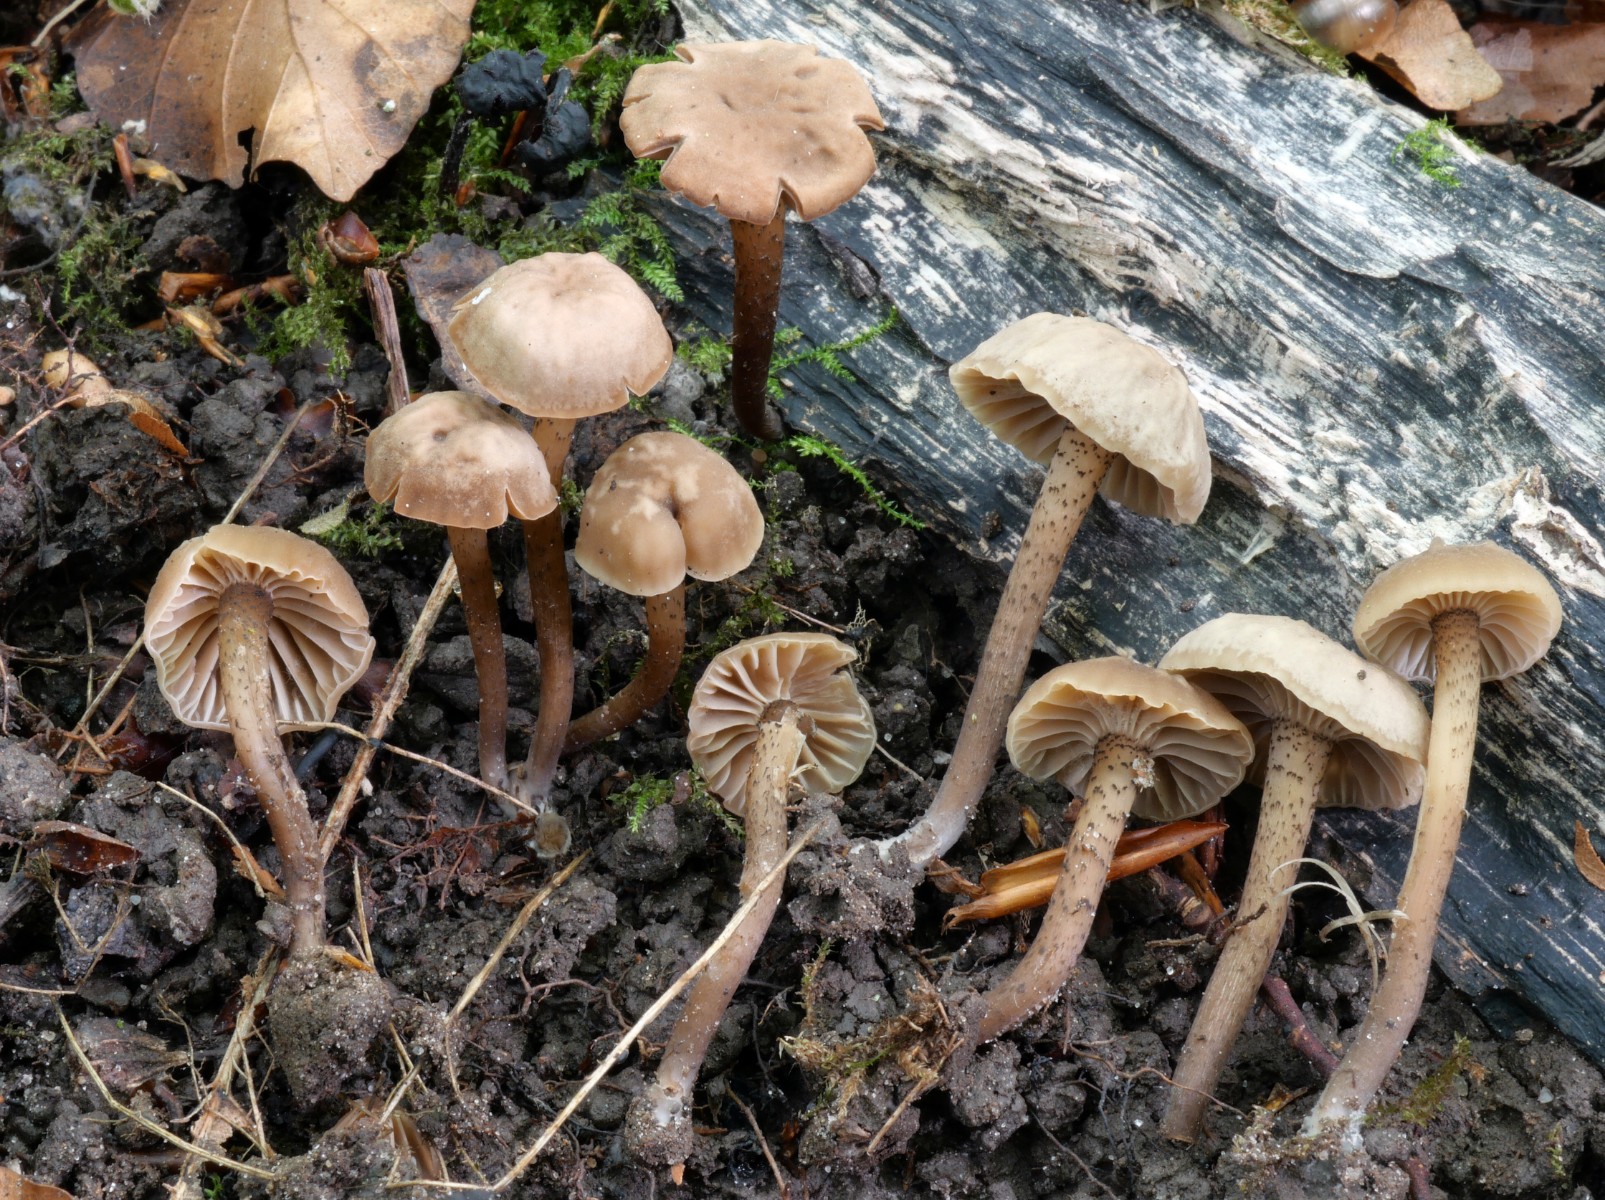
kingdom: Fungi
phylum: Basidiomycota
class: Agaricomycetes
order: Agaricales
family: Clavariaceae
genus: Hodophilus
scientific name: Hodophilus atropunctus
